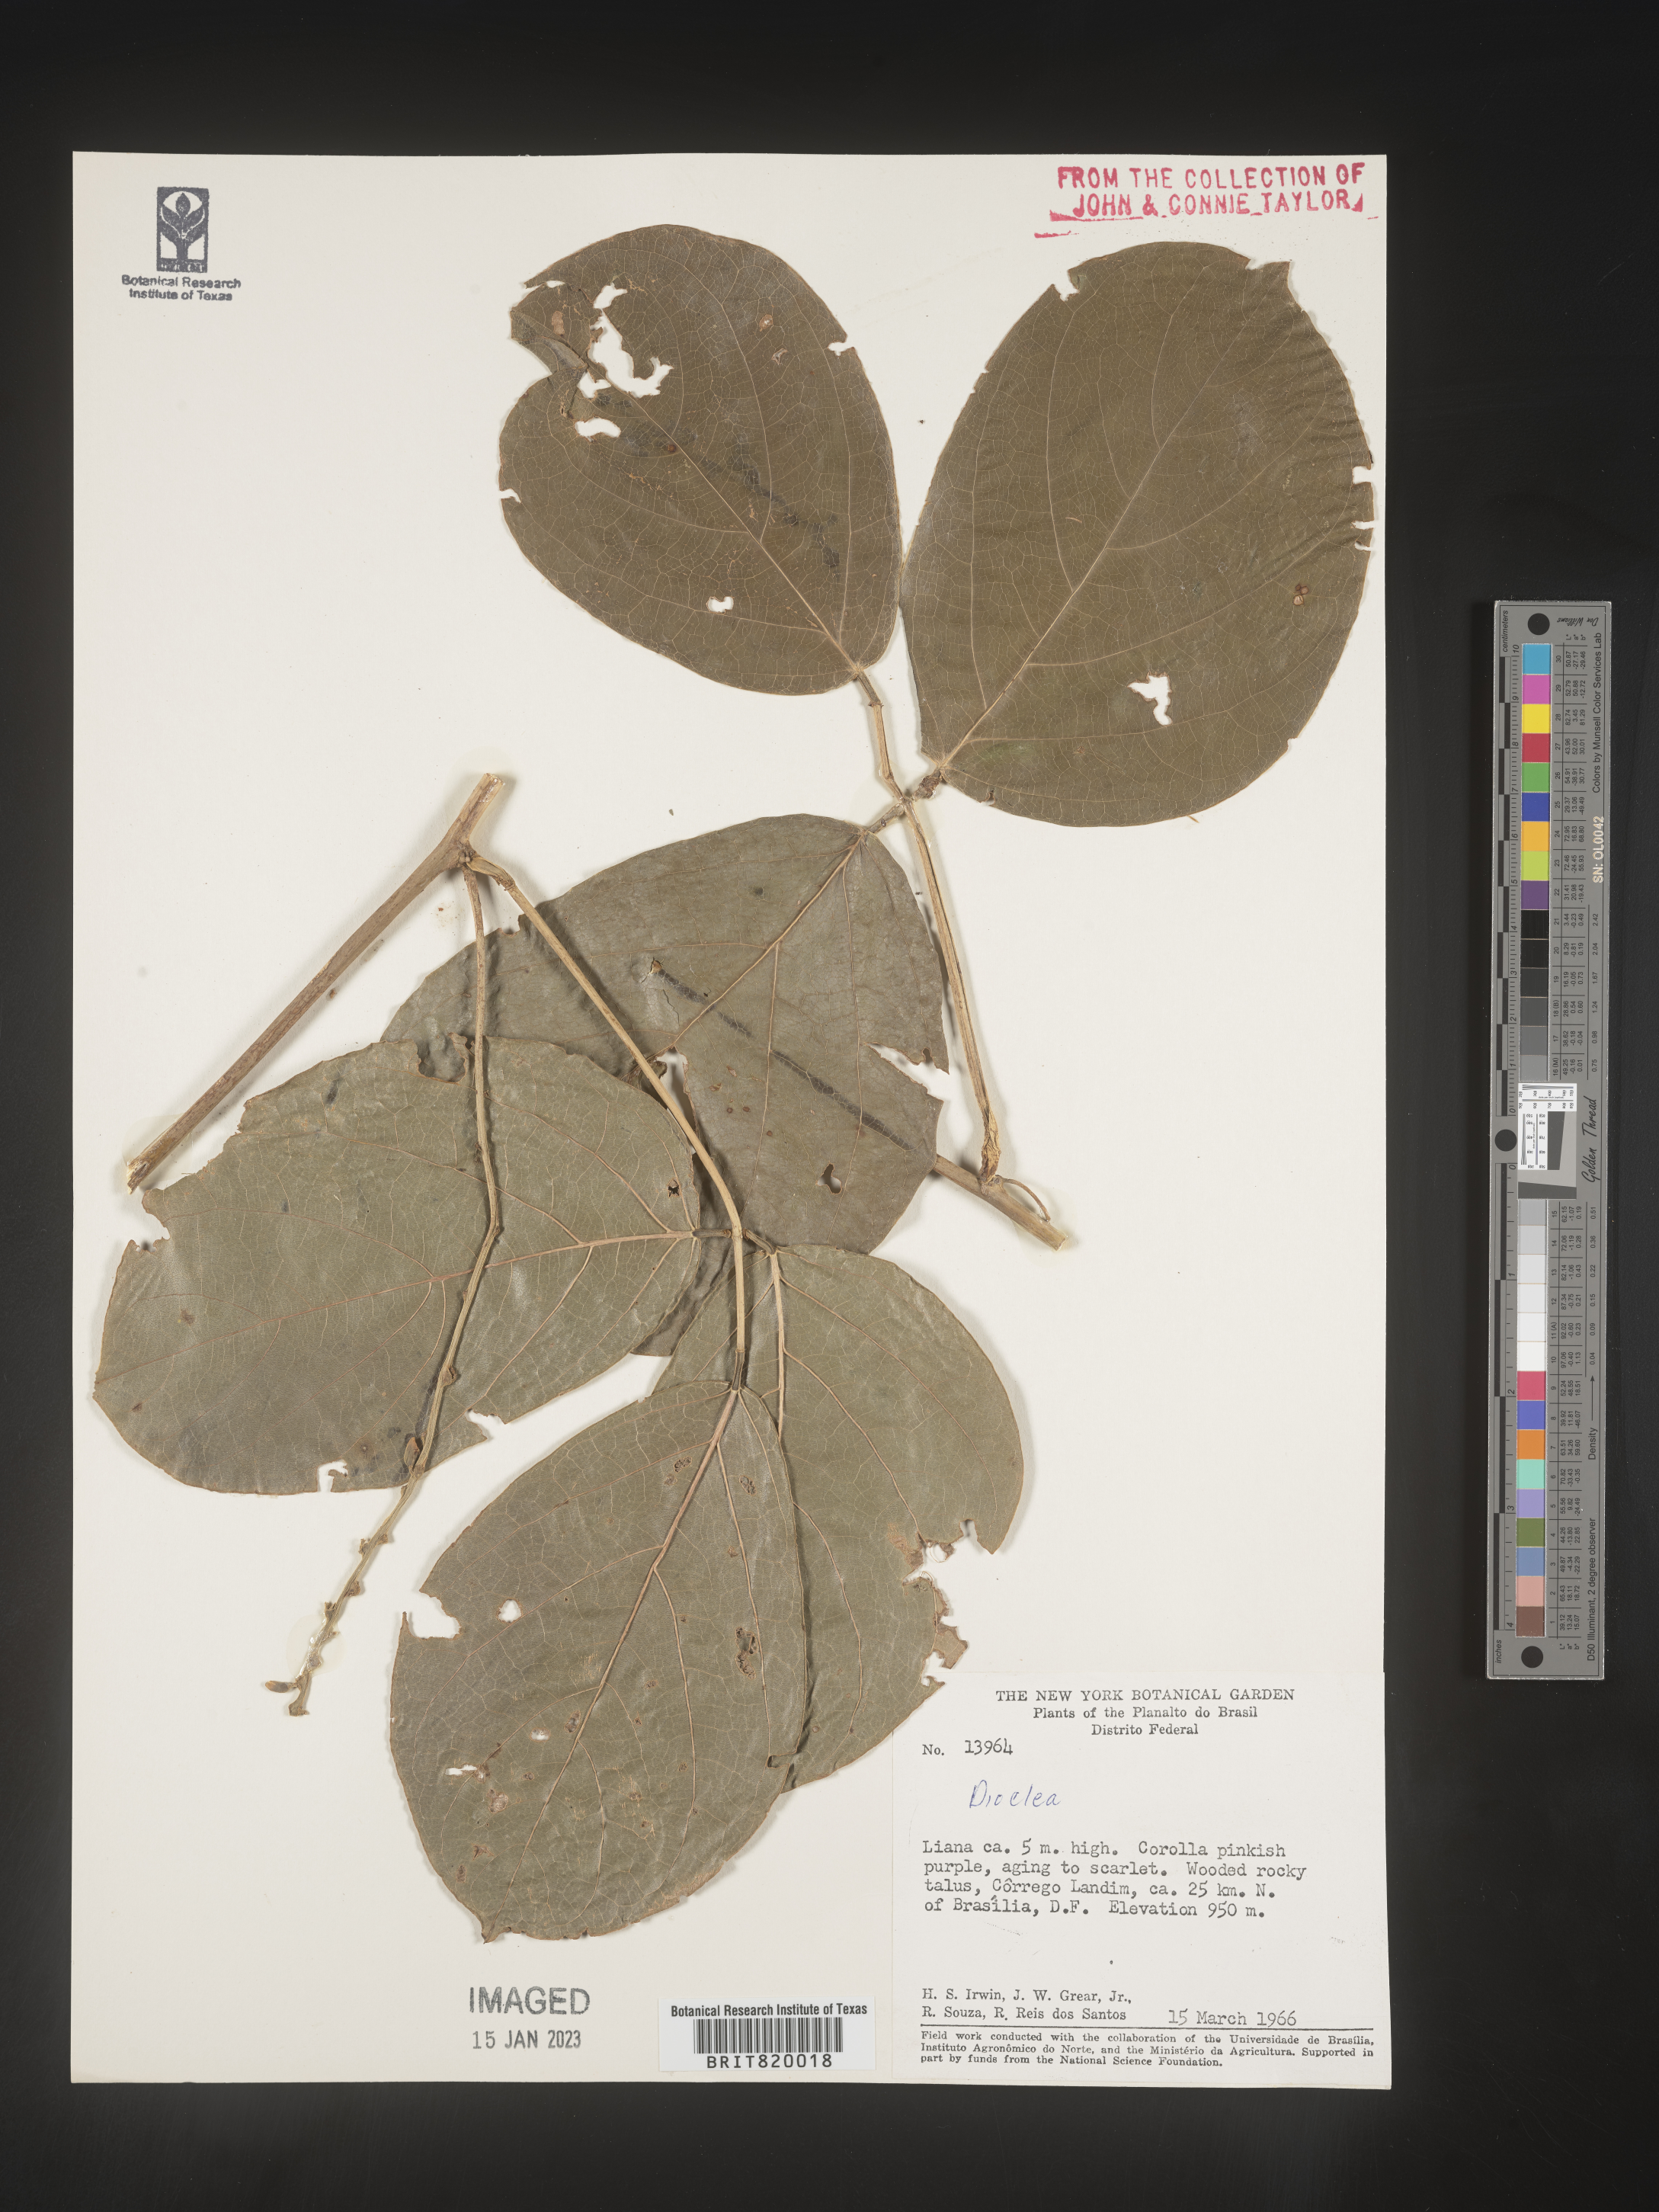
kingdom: Plantae
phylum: Tracheophyta
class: Magnoliopsida
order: Fabales
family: Fabaceae
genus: Dioclea
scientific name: Dioclea
